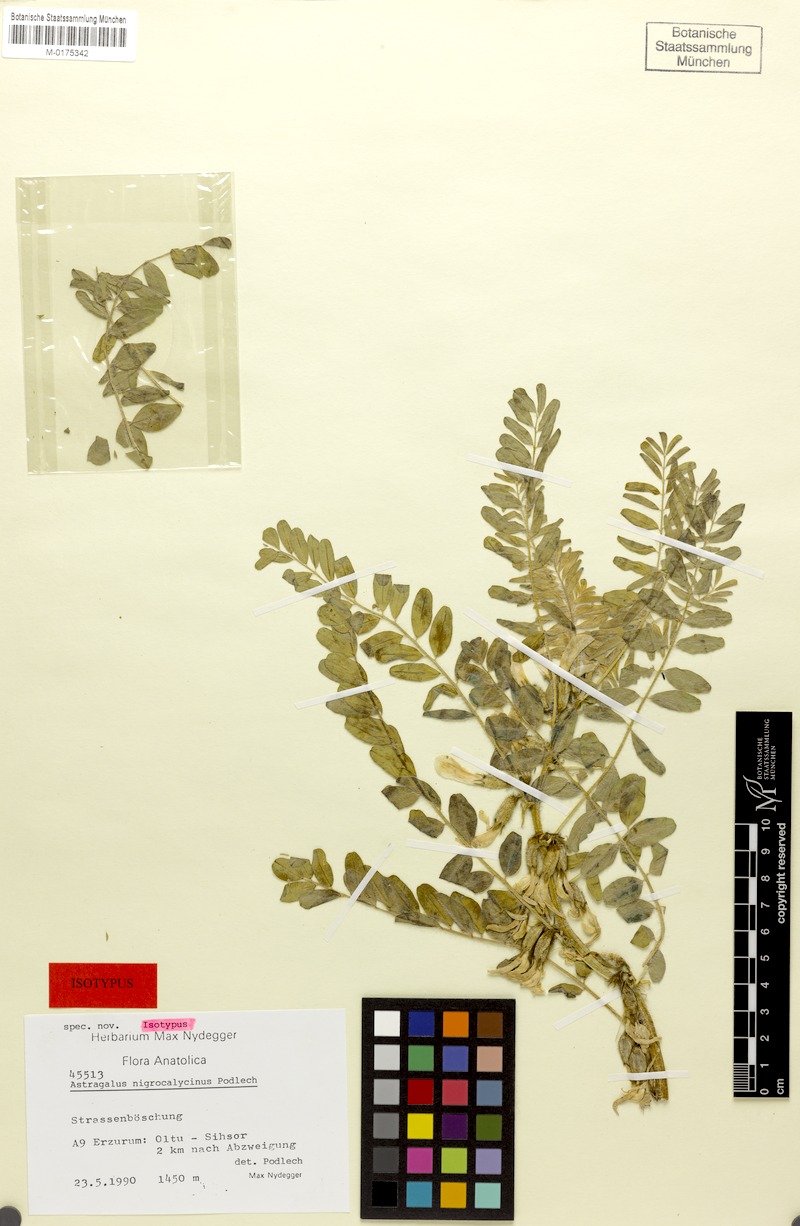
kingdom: Plantae
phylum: Tracheophyta
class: Magnoliopsida
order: Fabales
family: Fabaceae
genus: Astragalus
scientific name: Astragalus nigrocalycinus
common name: Black-calyx milk vetch
